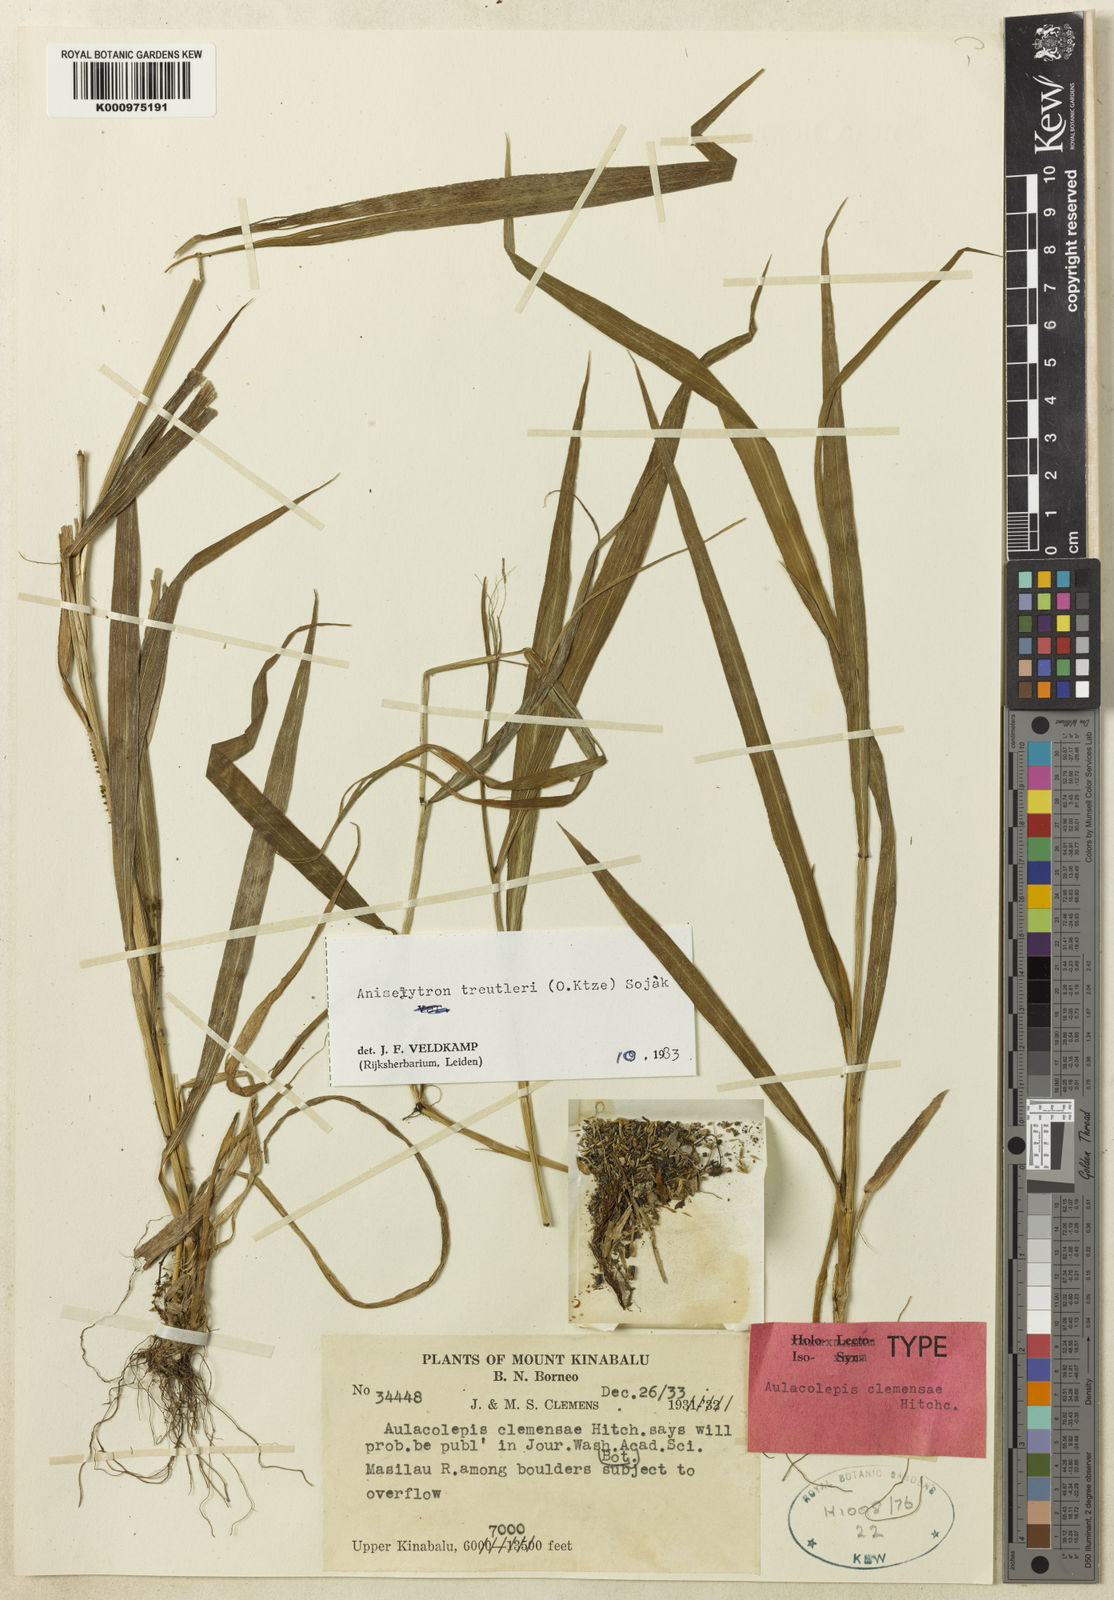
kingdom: Plantae
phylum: Tracheophyta
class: Liliopsida
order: Poales
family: Poaceae
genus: Aniselytron
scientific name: Aniselytron
